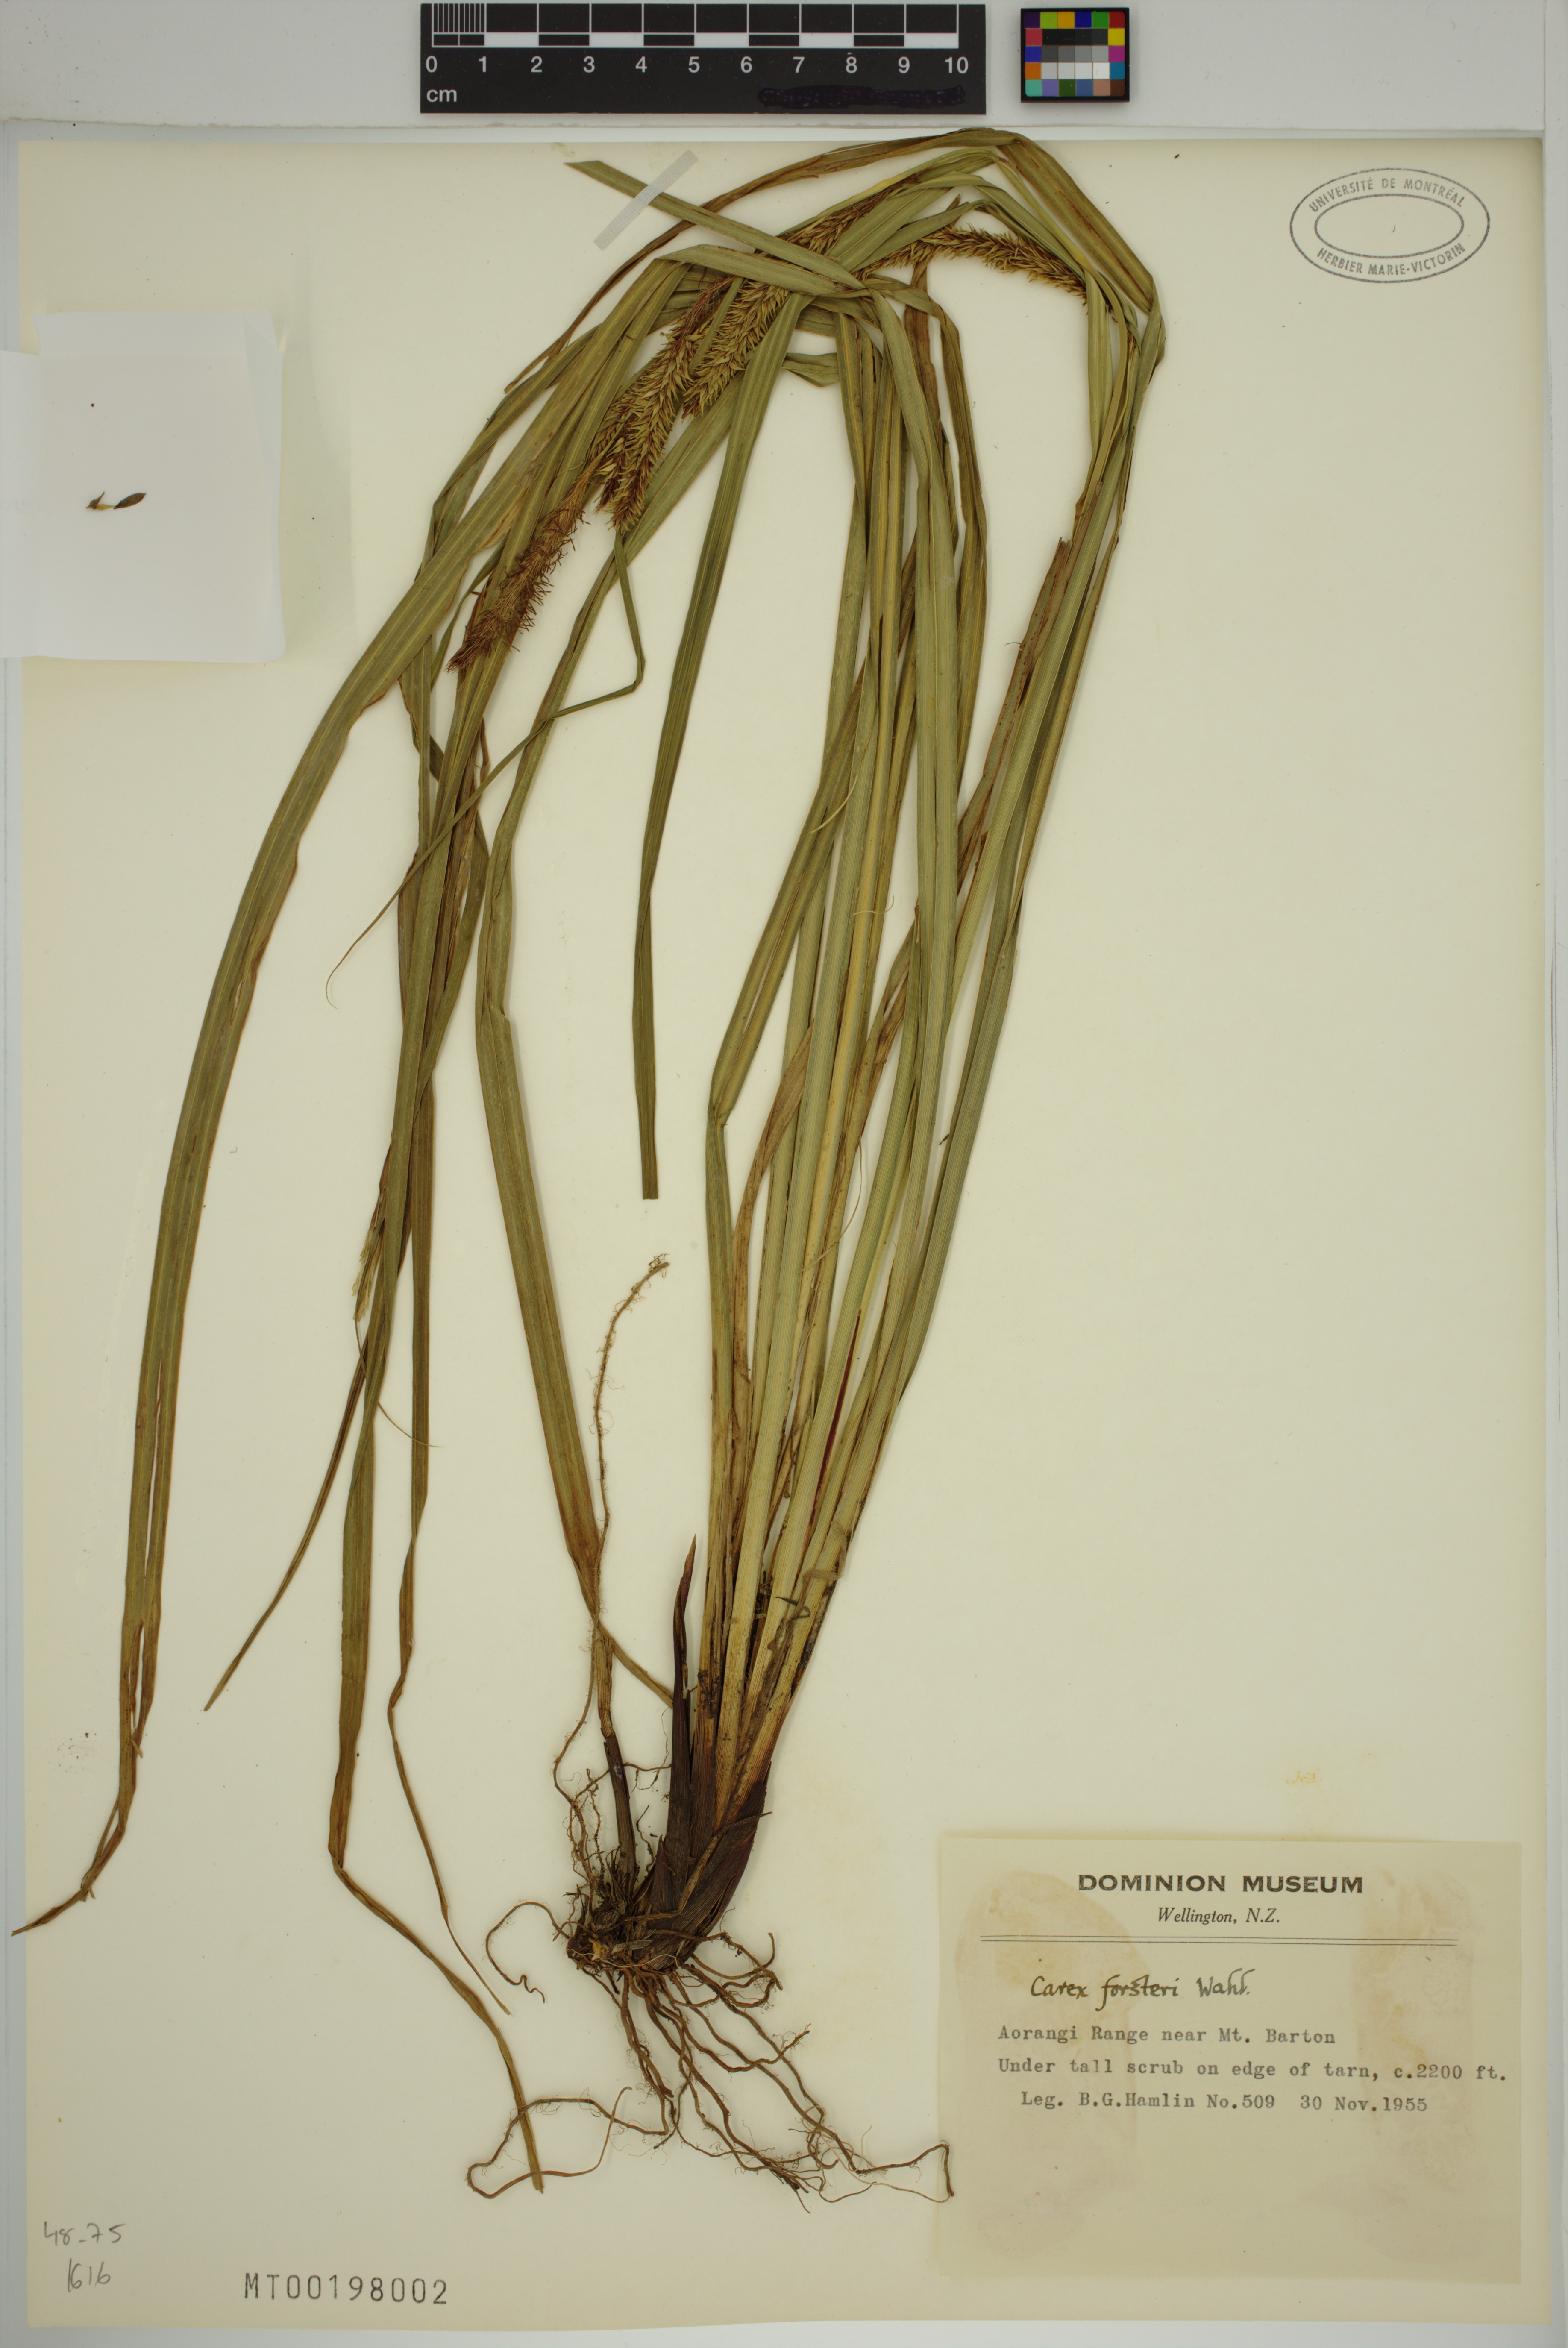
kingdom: Plantae
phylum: Tracheophyta
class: Liliopsida
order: Poales
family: Cyperaceae
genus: Carex
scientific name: Carex forsteri
